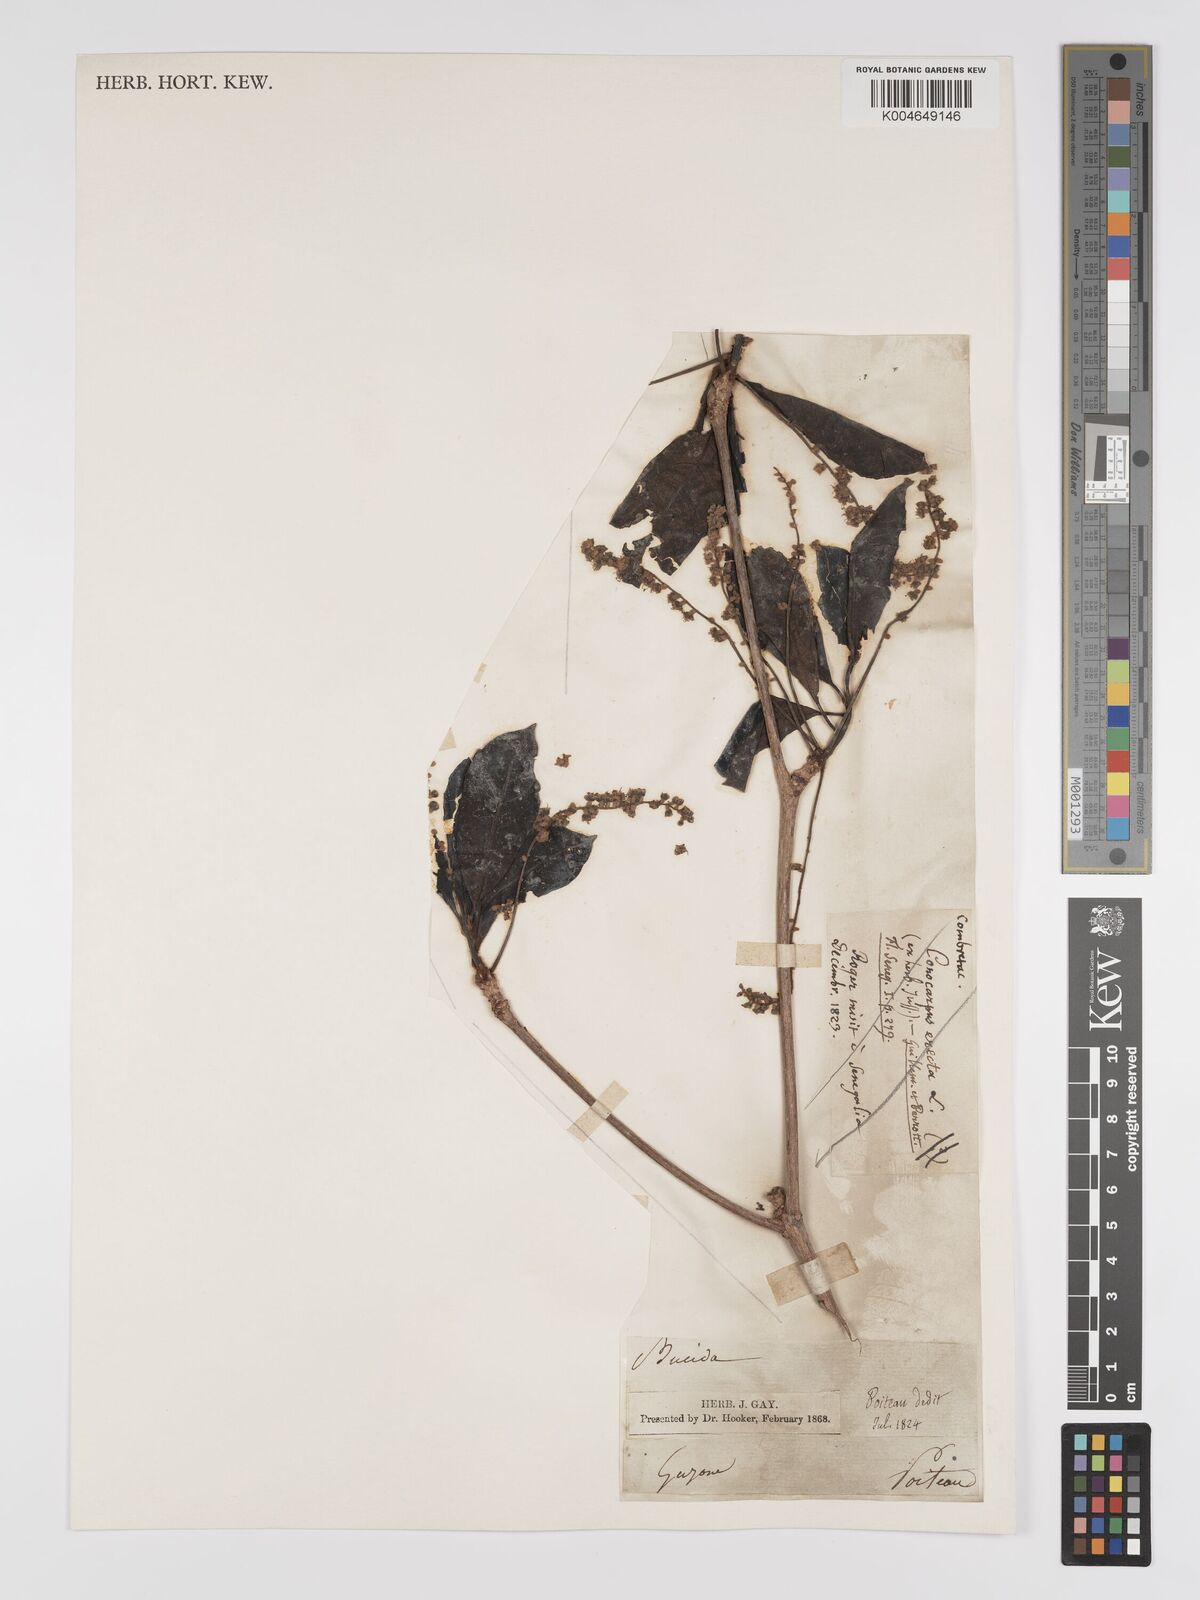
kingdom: Plantae
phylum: Tracheophyta
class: Magnoliopsida
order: Myrtales
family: Combretaceae
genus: Terminalia
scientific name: Terminalia dichotoma
